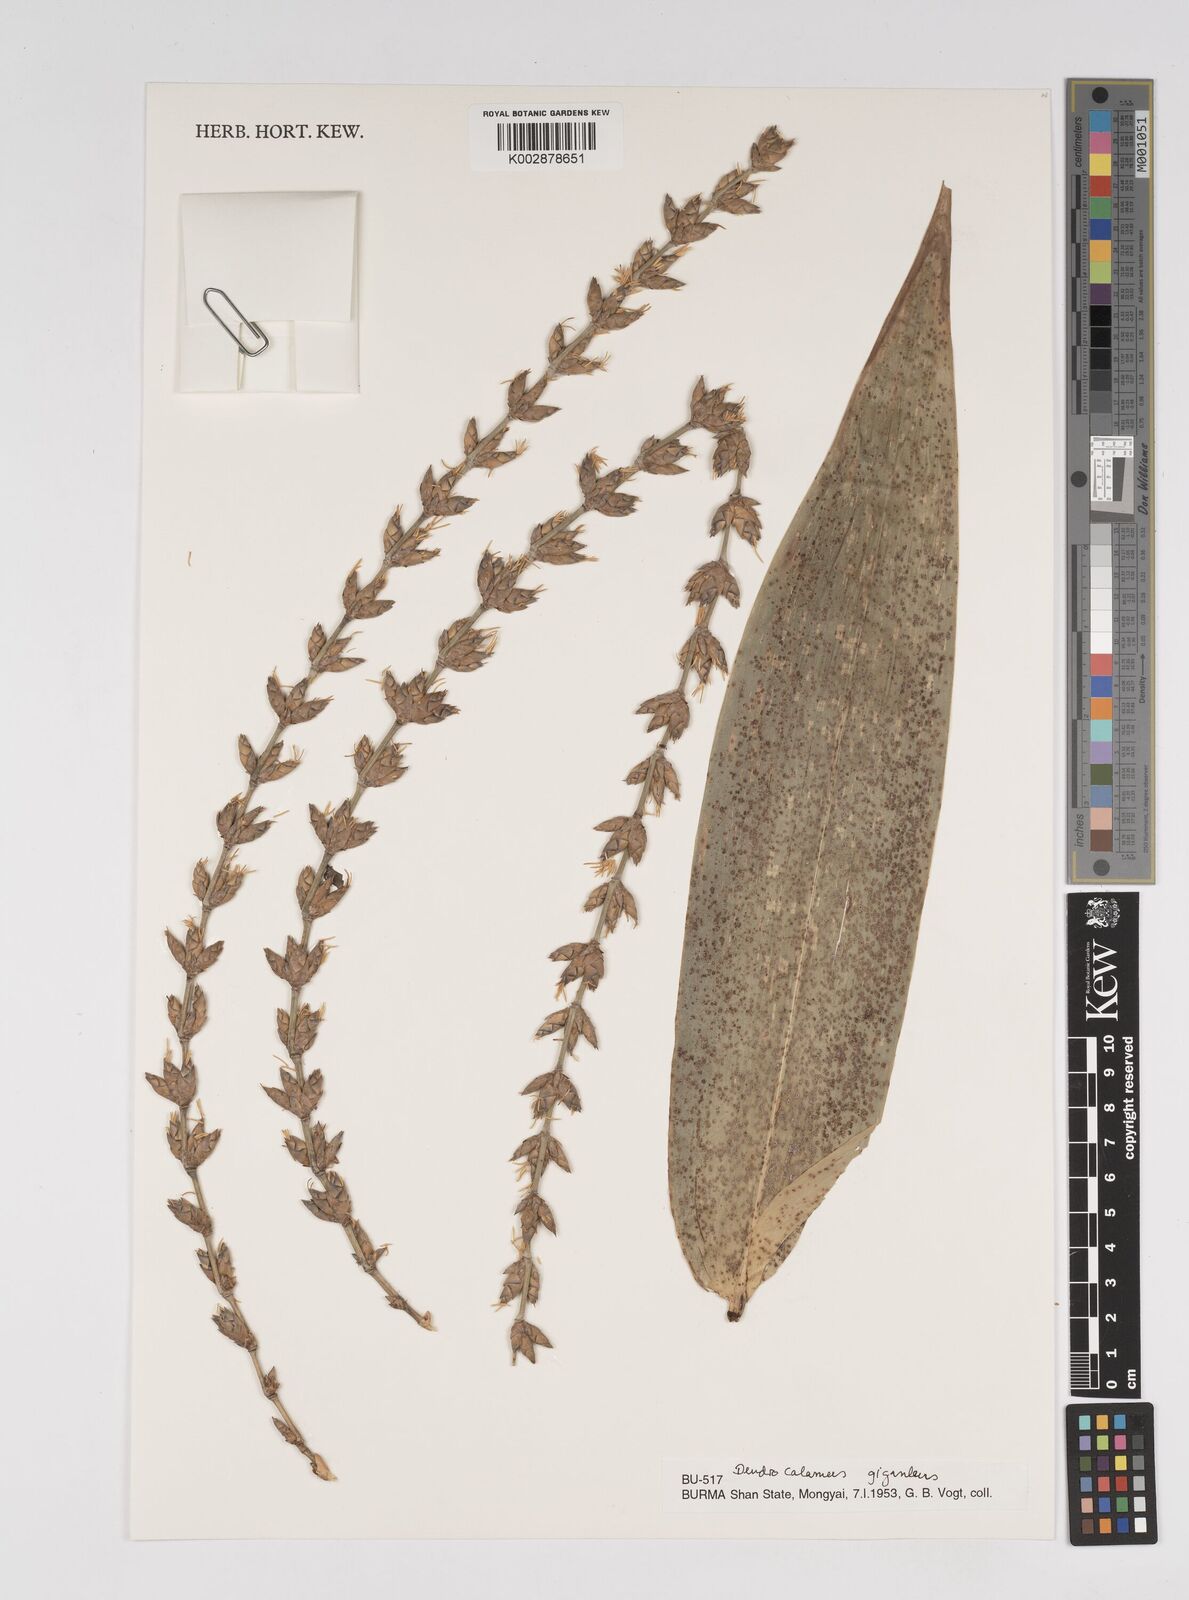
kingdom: Plantae
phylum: Tracheophyta
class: Liliopsida
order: Poales
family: Poaceae
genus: Dendrocalamus
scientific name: Dendrocalamus giganteus
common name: Giant bamboo
